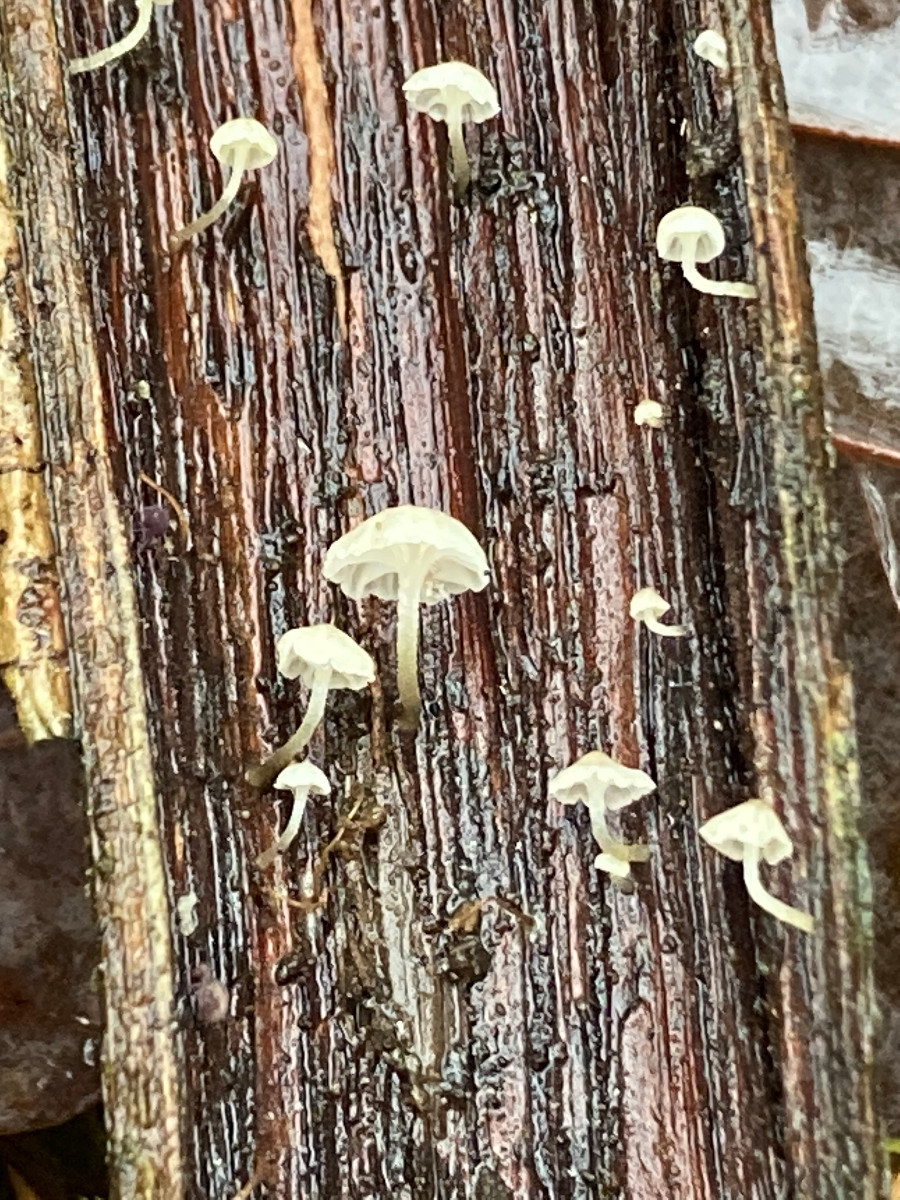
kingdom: Fungi
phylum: Basidiomycota
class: Agaricomycetes
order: Agaricales
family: Porotheleaceae
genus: Phloeomana
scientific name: Phloeomana speirea
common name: kvist-huesvamp
